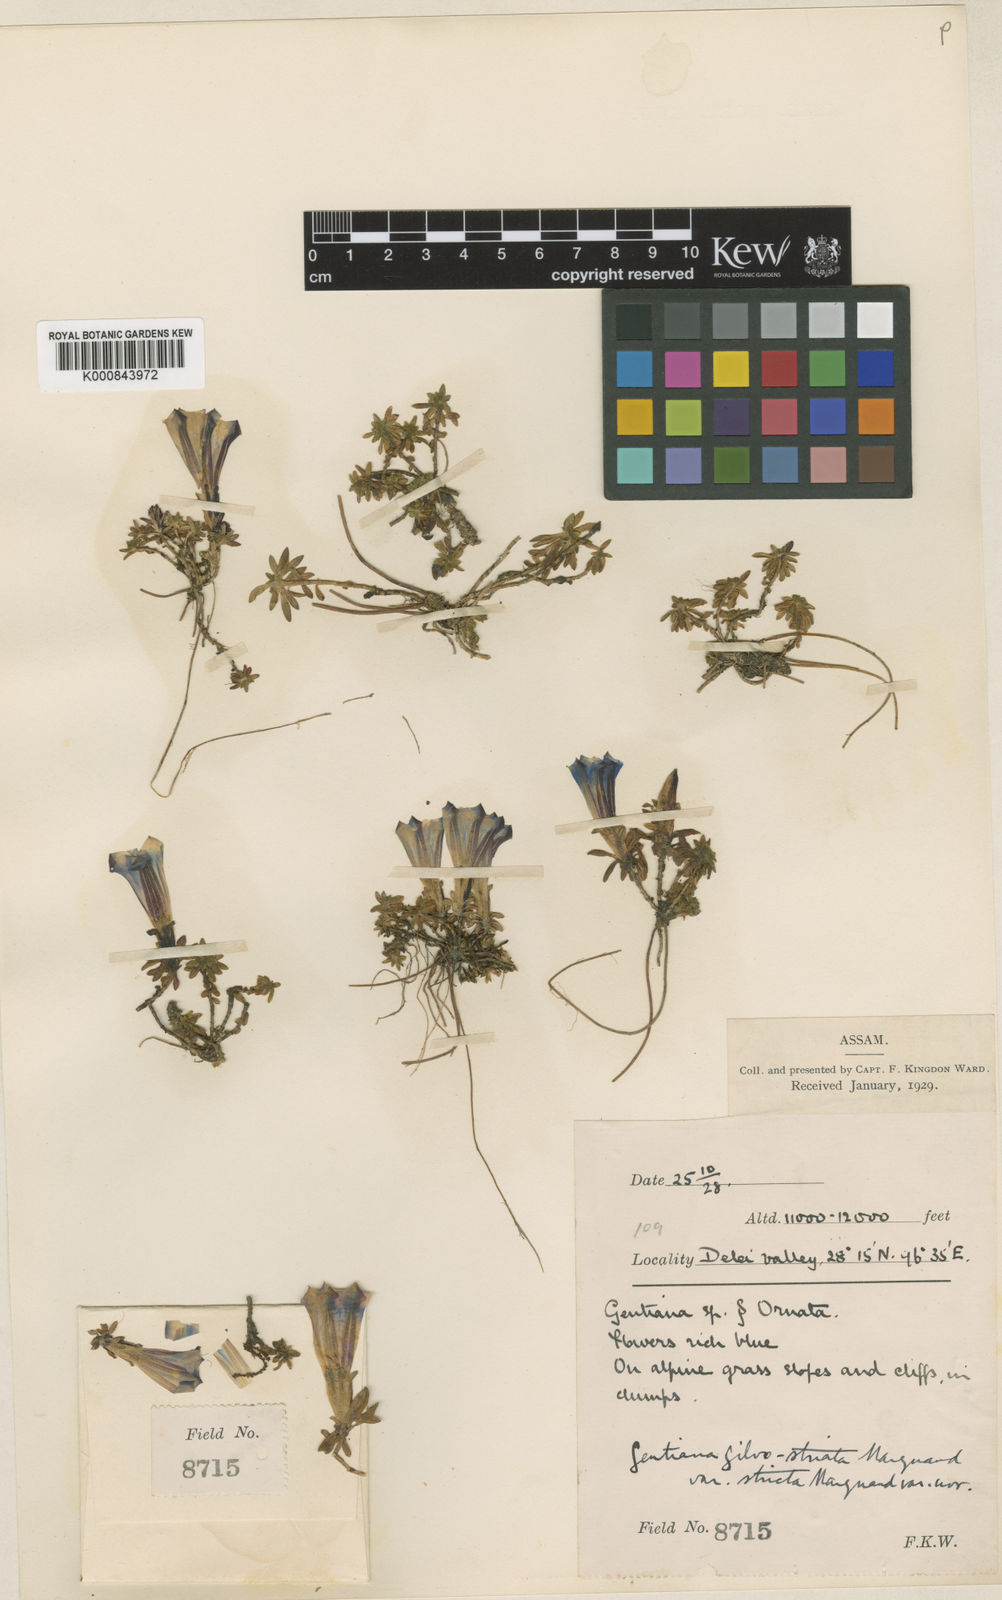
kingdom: Plantae
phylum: Tracheophyta
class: Magnoliopsida
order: Gentianales
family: Gentianaceae
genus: Gentiana
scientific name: Gentiana gilvostriata
